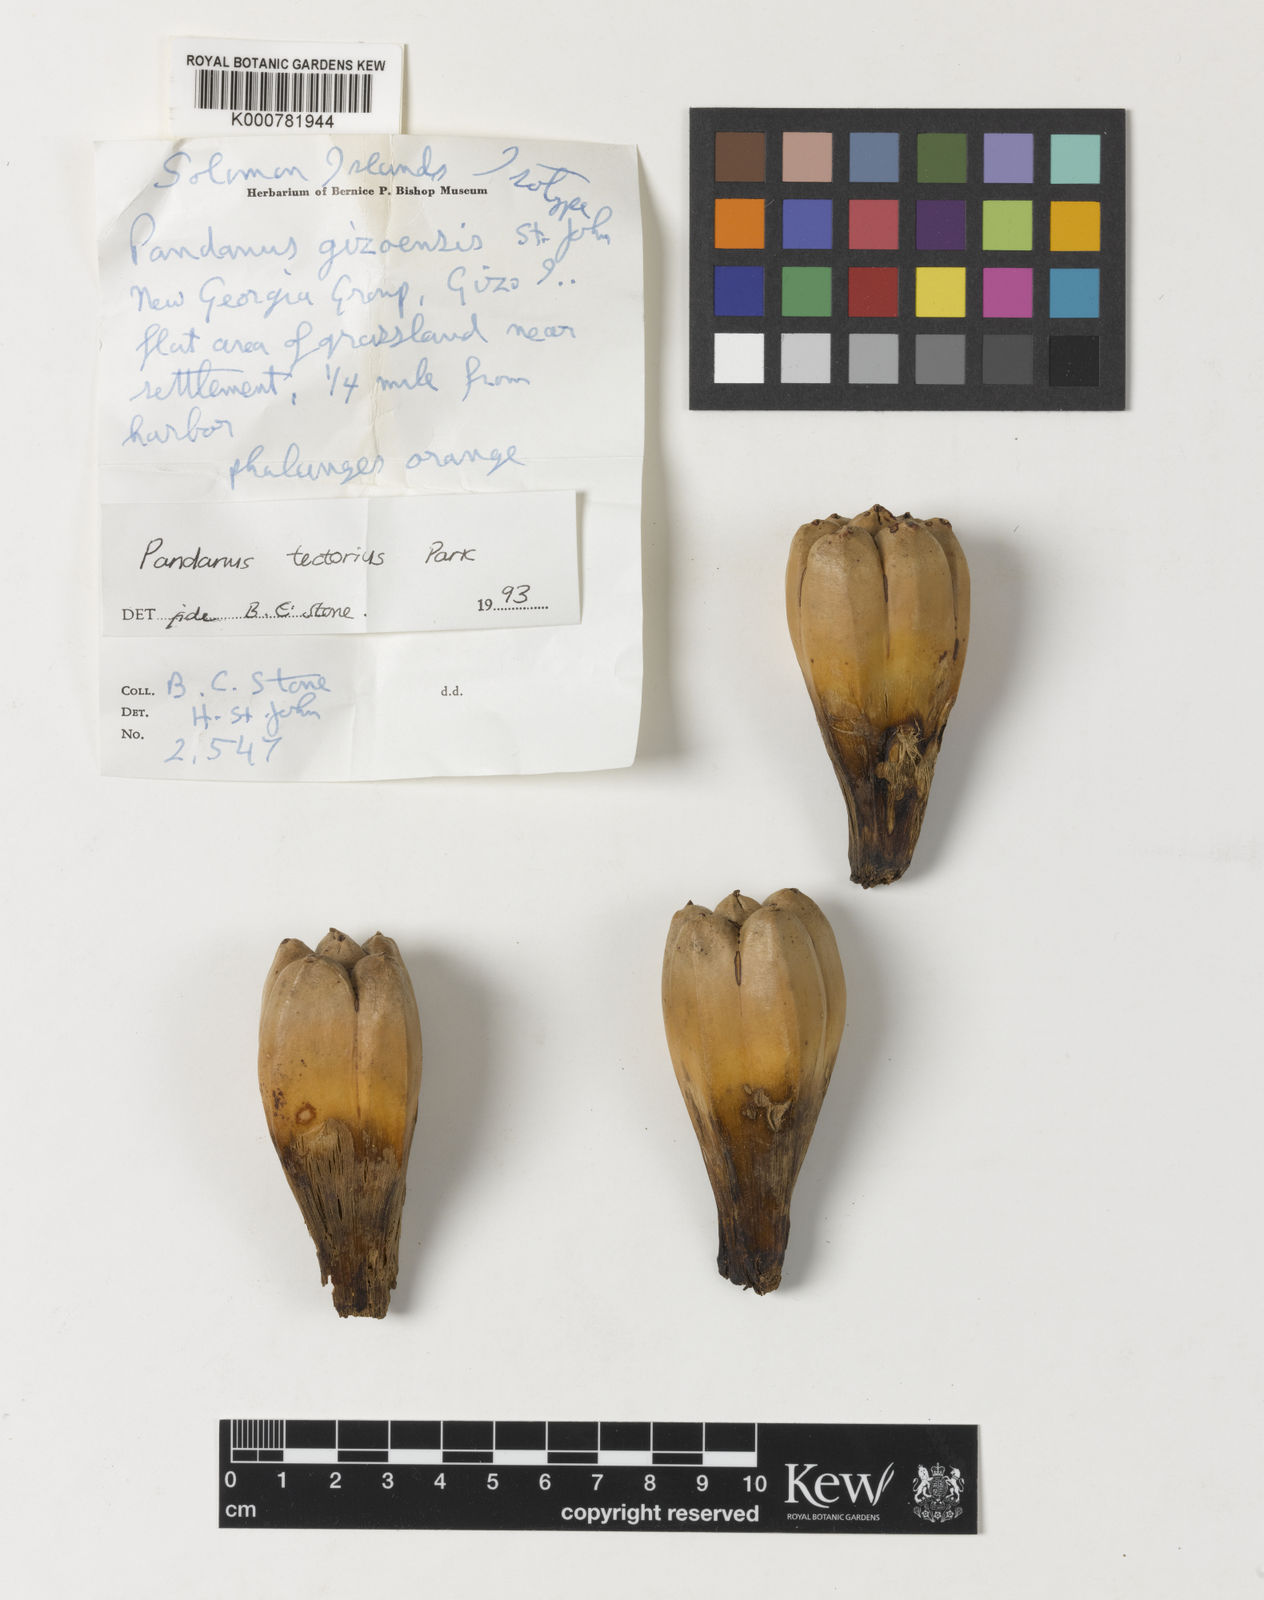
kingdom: Plantae
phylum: Tracheophyta
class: Liliopsida
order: Pandanales
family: Pandanaceae
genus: Pandanus
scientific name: Pandanus
